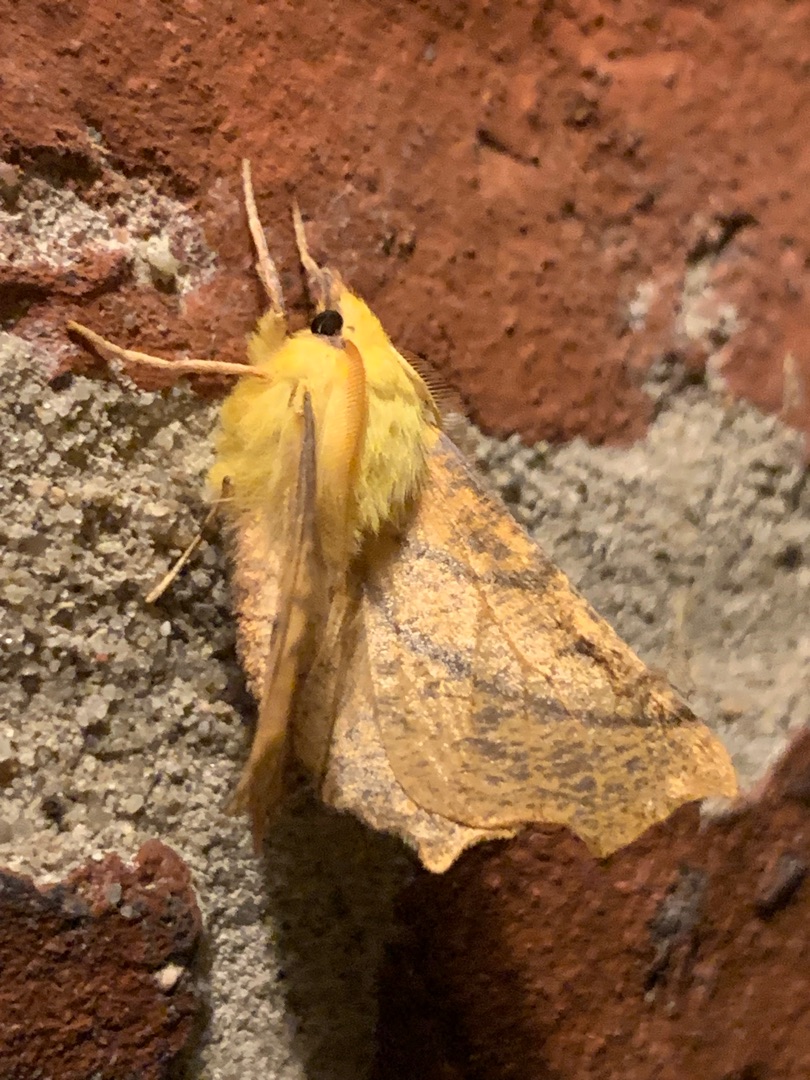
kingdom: Animalia
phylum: Arthropoda
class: Insecta
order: Lepidoptera
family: Geometridae
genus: Ennomos
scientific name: Ennomos alniaria
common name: Elle-tandmåler
